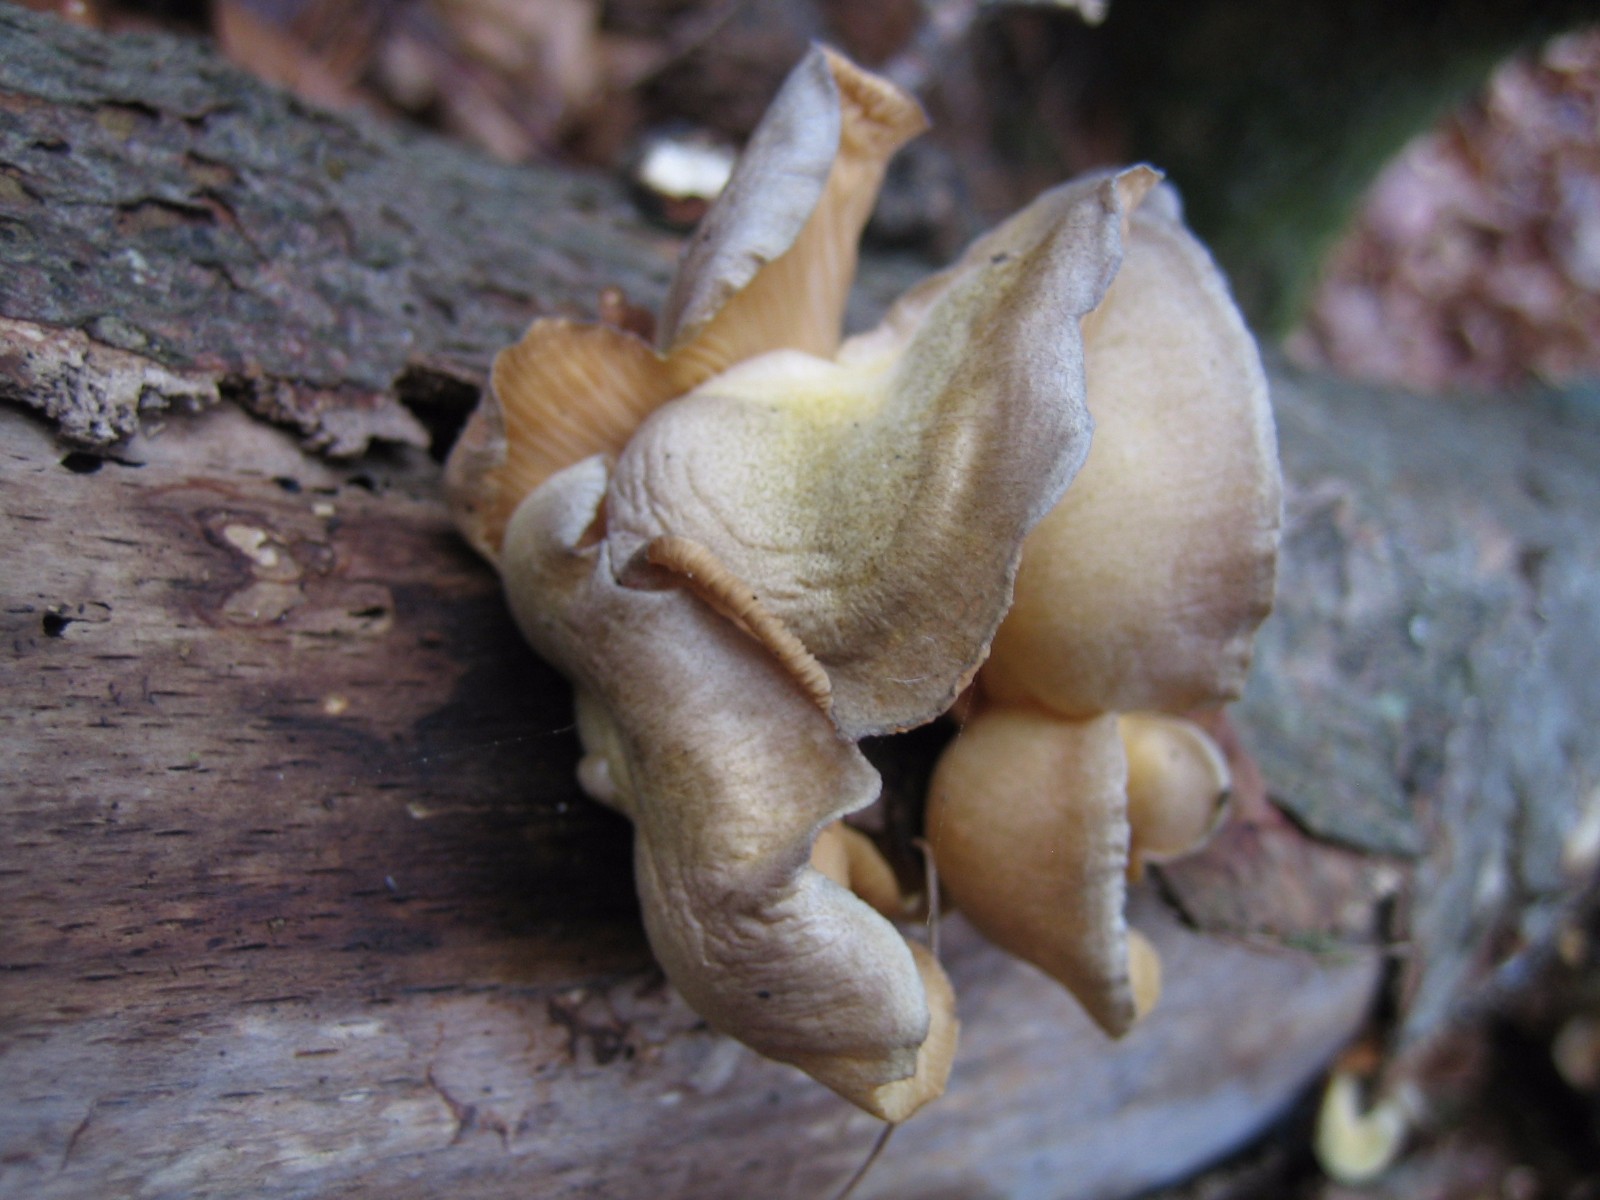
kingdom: Fungi
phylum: Basidiomycota
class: Agaricomycetes
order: Agaricales
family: Sarcomyxaceae
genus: Sarcomyxa
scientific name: Sarcomyxa serotina
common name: gummihat
